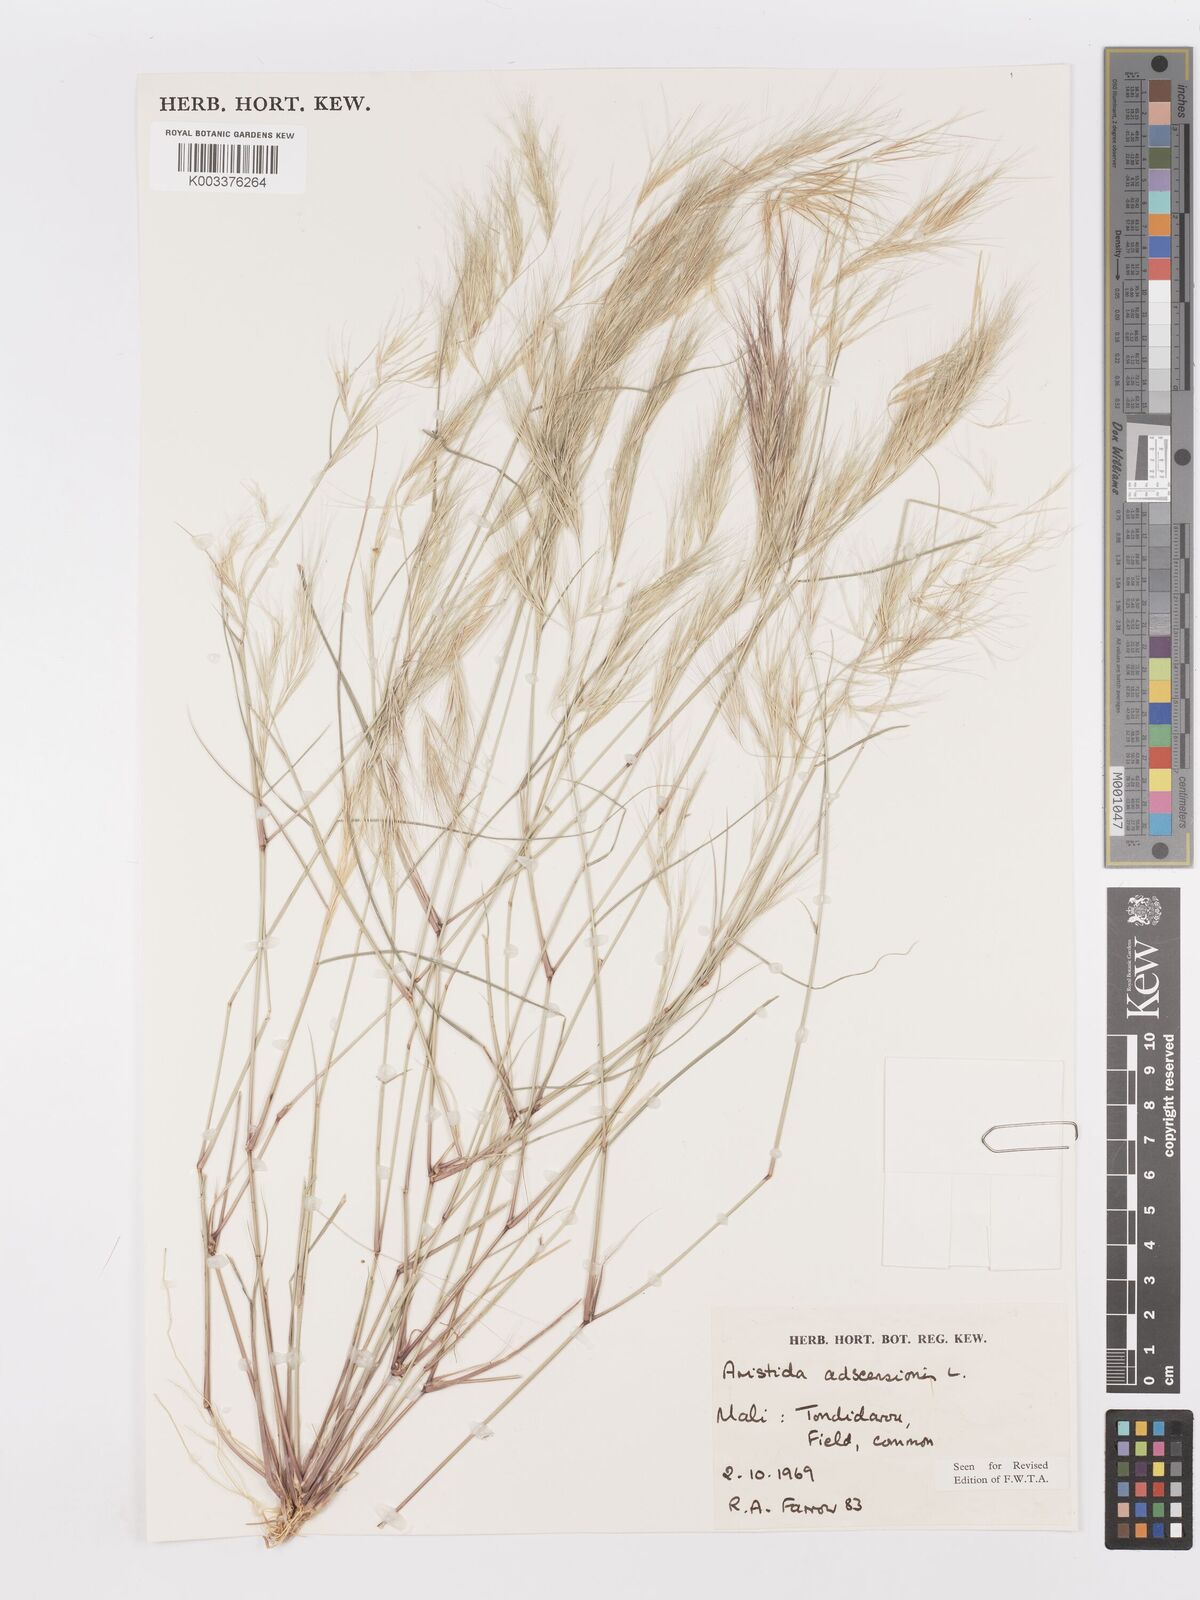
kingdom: Plantae
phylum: Tracheophyta
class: Liliopsida
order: Poales
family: Poaceae
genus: Aristida
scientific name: Aristida adscensionis
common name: Sixweeks threeawn
